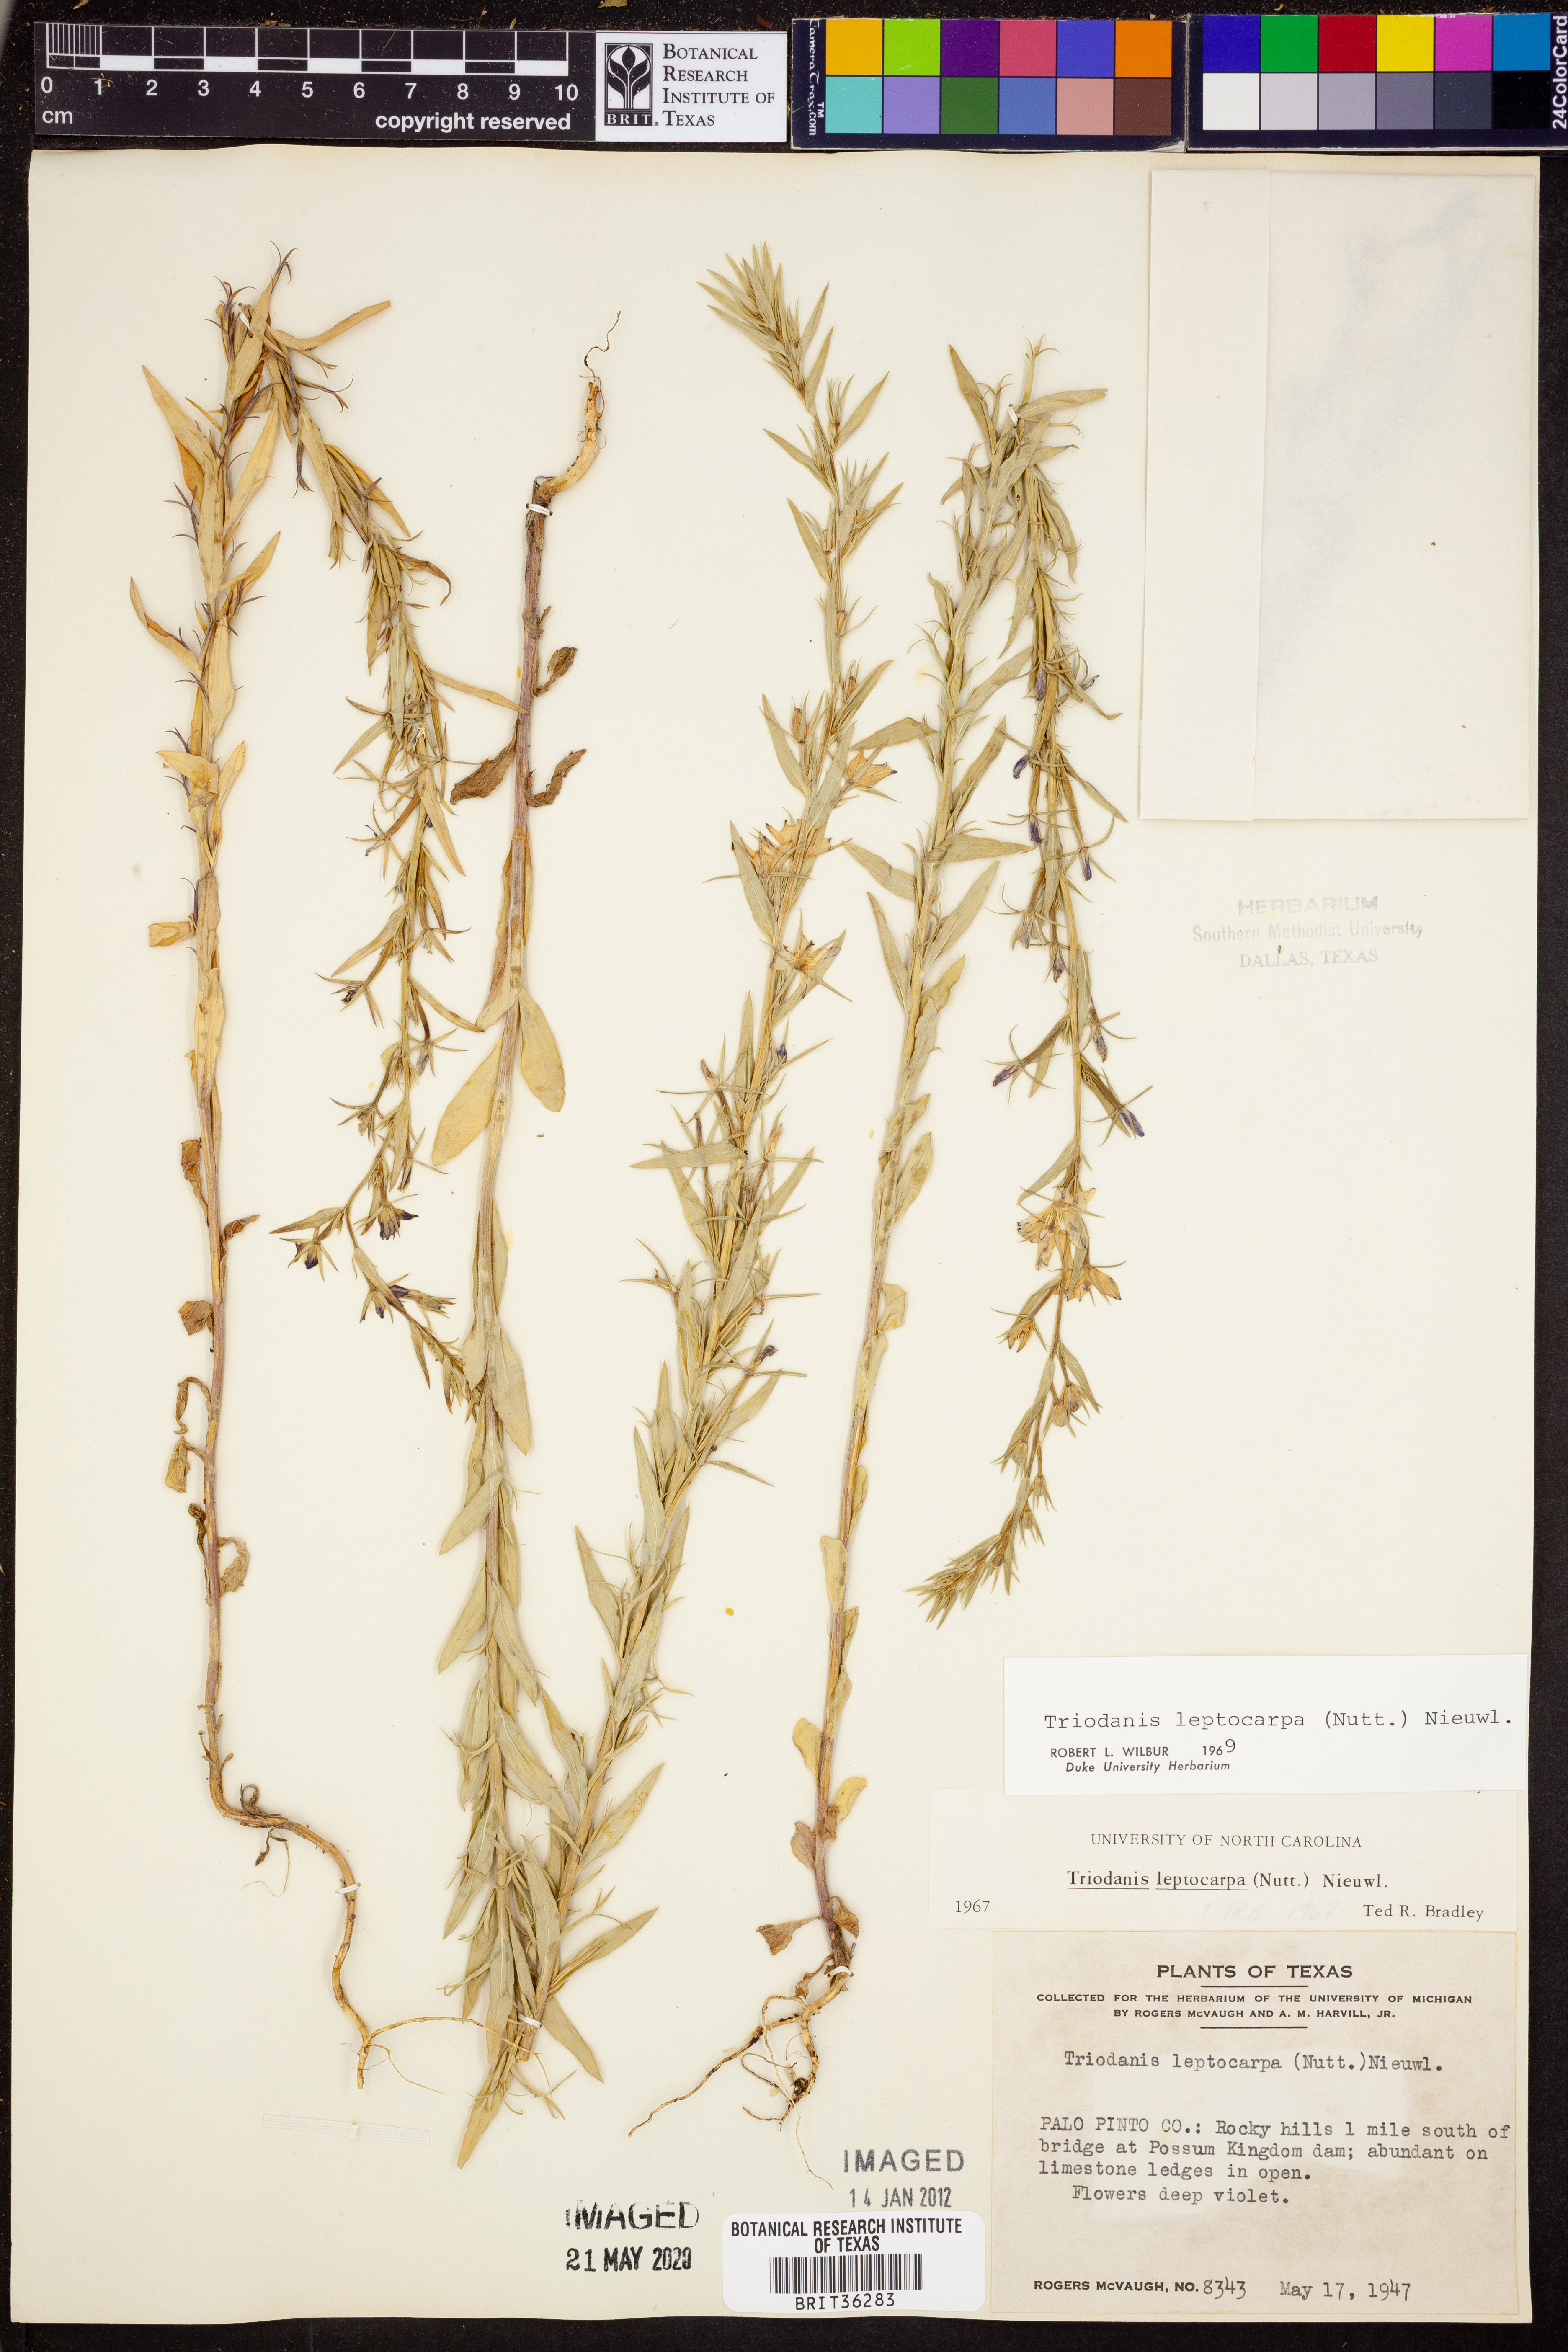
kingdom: Plantae
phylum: Tracheophyta
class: Magnoliopsida
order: Asterales
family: Campanulaceae
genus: Triodanis
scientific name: Triodanis leptocarpa
